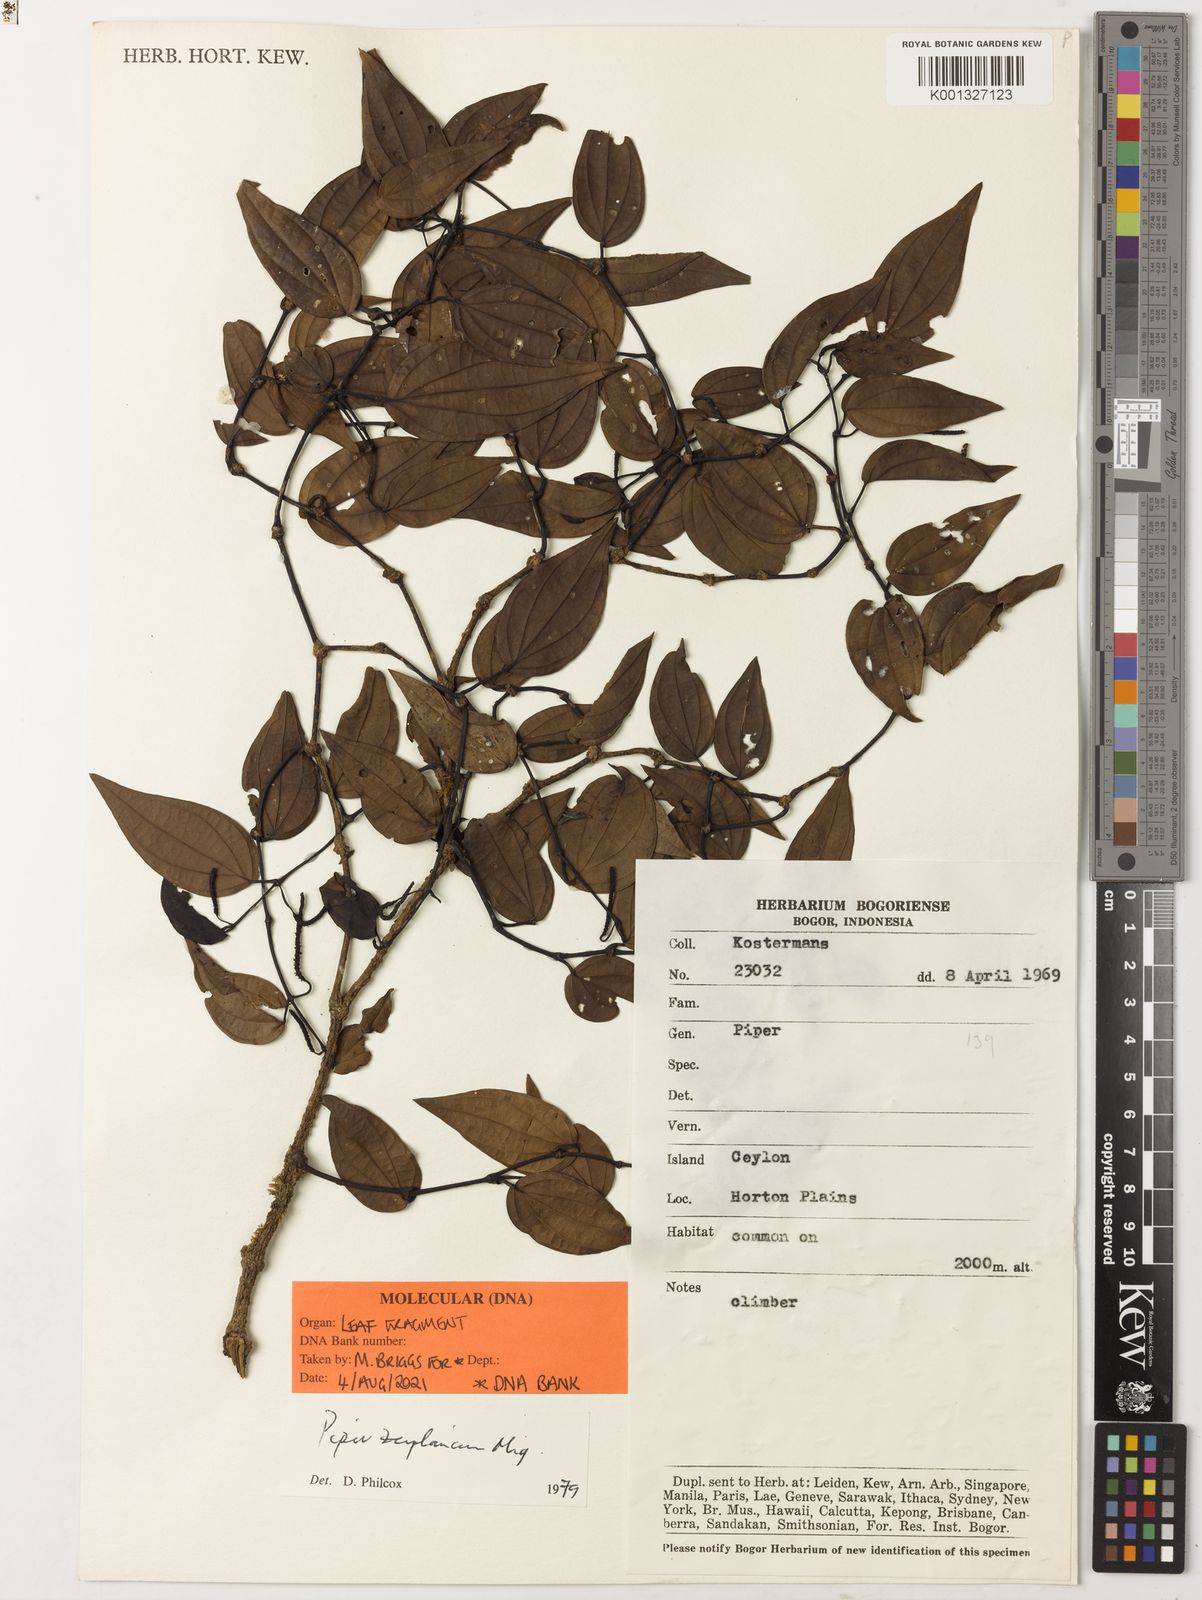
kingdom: Plantae
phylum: Tracheophyta
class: Magnoliopsida
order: Piperales
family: Piperaceae
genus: Piper
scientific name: Piper zeylanicum
